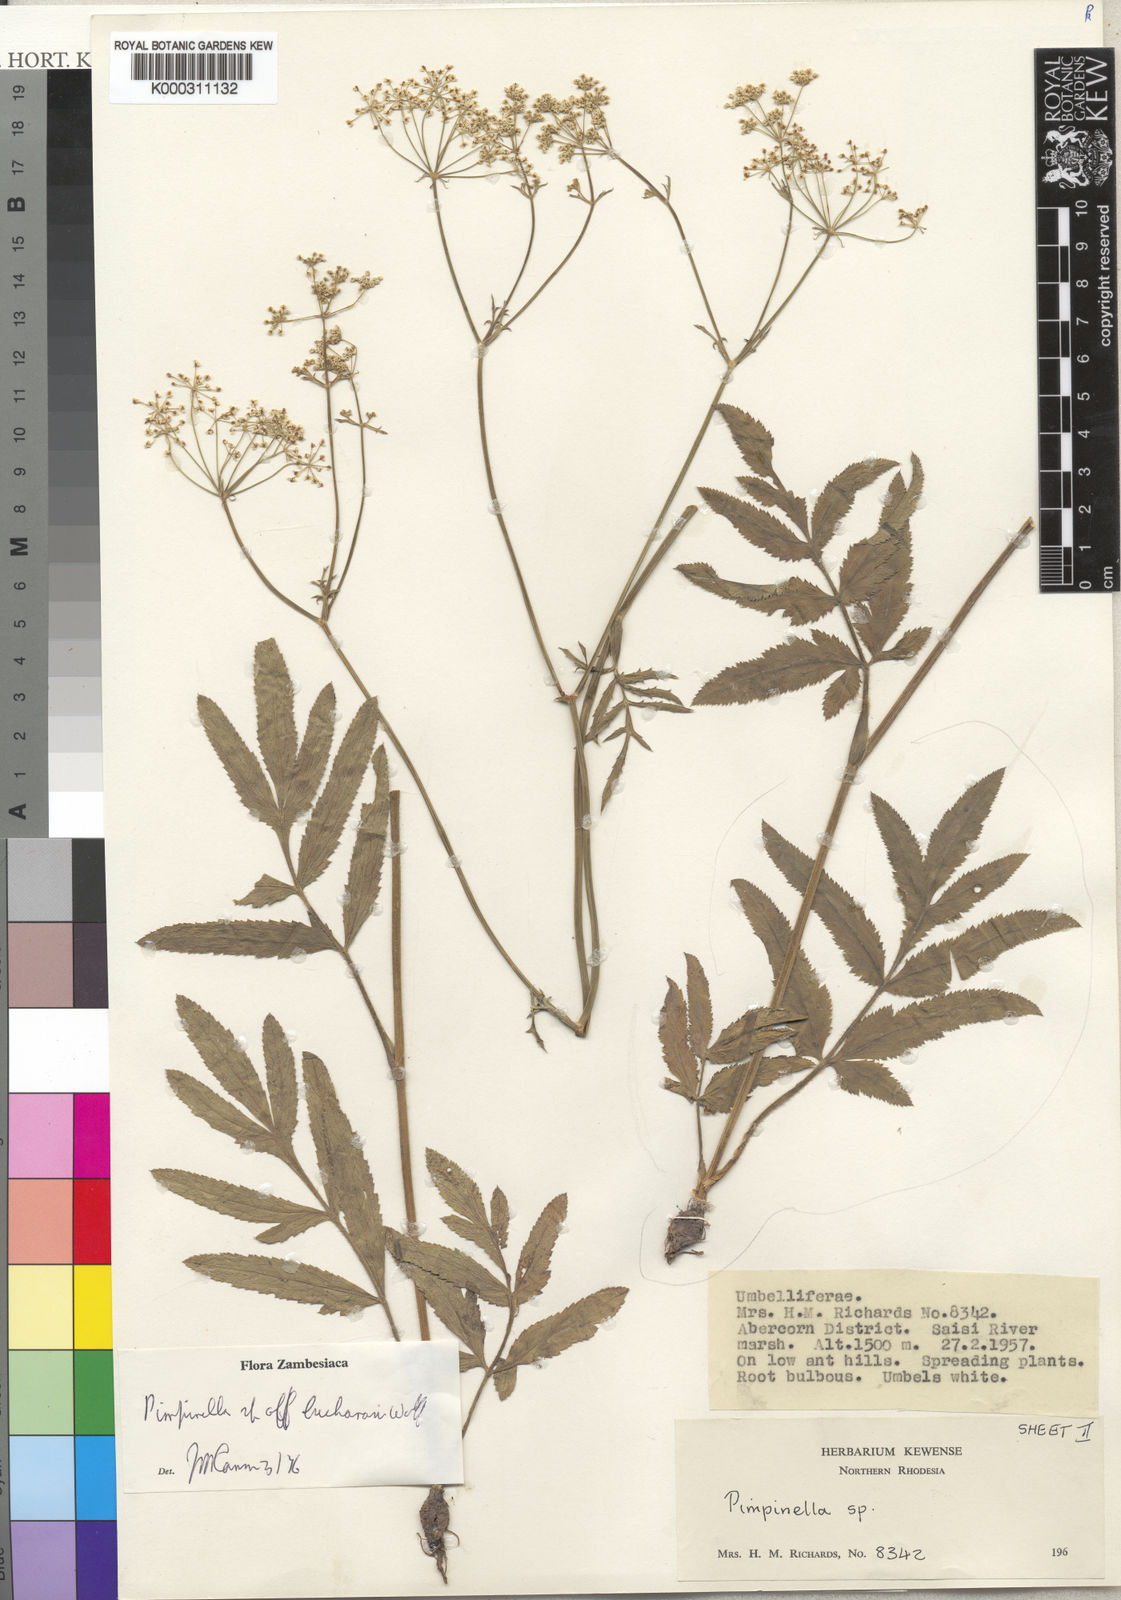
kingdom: Plantae
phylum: Tracheophyta
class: Magnoliopsida
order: Apiales
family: Apiaceae
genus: Pimpinella
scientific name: Pimpinella paludosa
